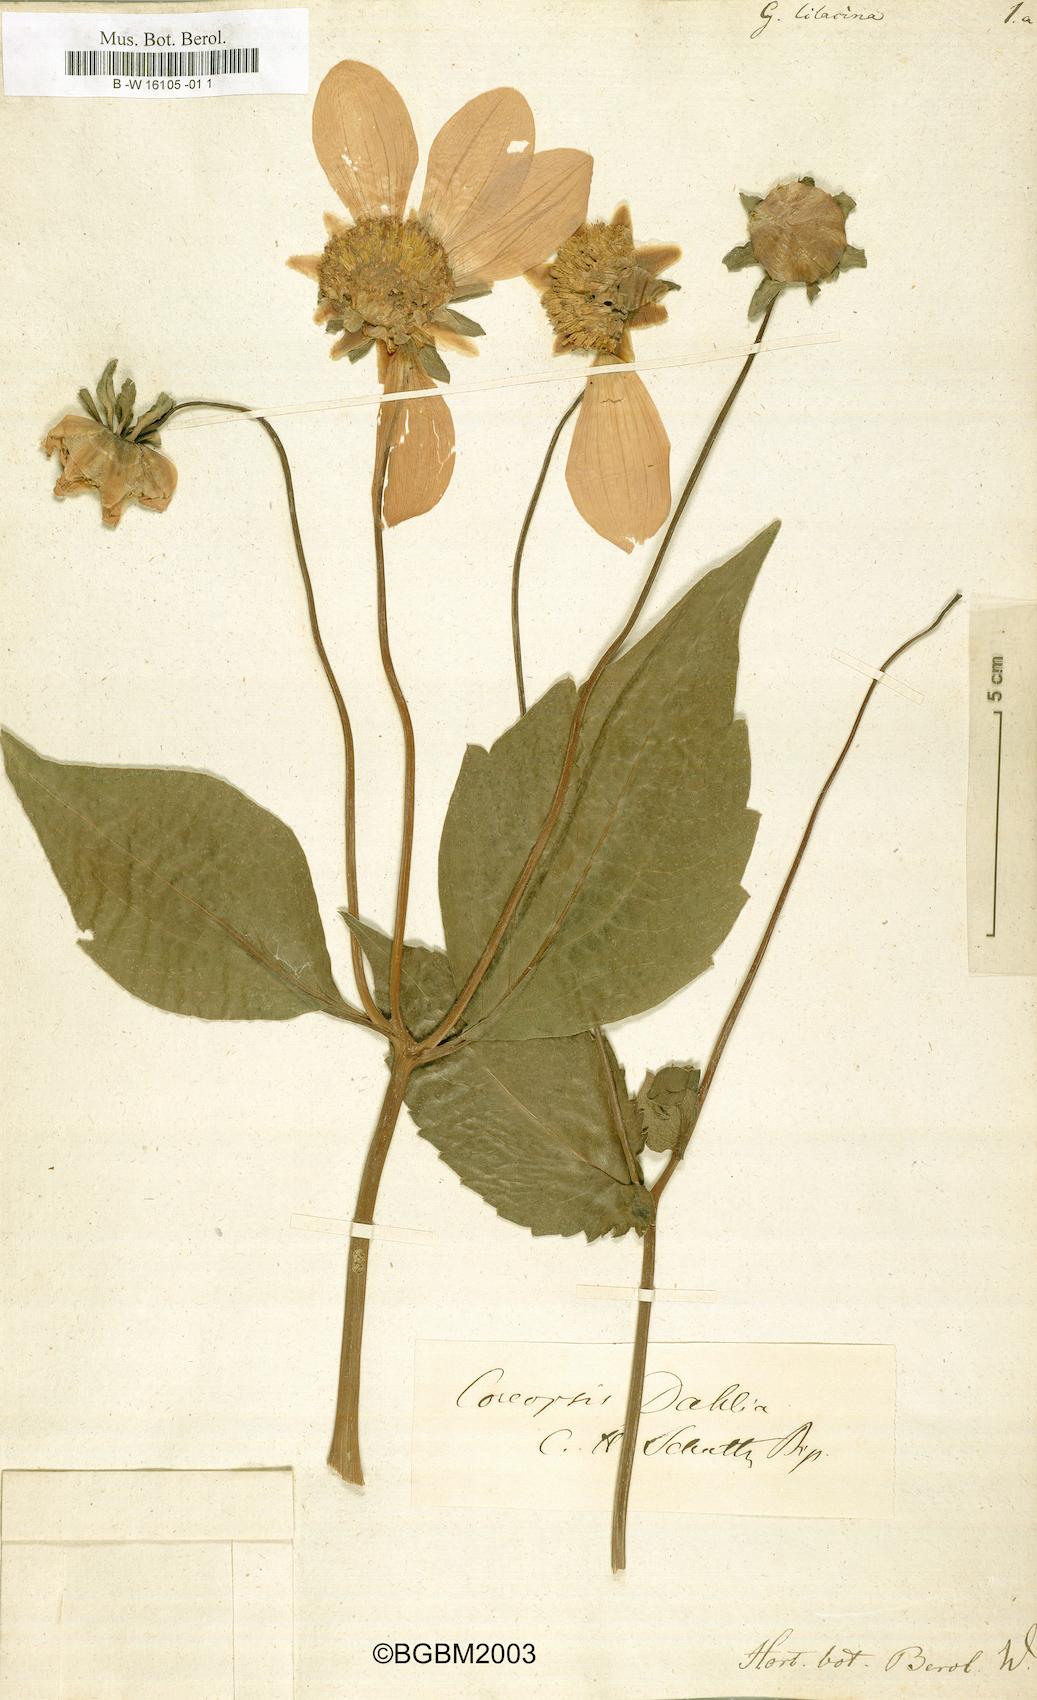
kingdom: Plantae
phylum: Tracheophyta
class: Magnoliopsida
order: Asterales
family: Asteraceae
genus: Dahlia
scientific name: Dahlia
